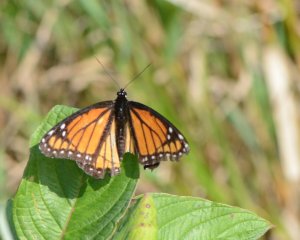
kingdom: Animalia
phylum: Arthropoda
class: Insecta
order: Lepidoptera
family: Nymphalidae
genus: Limenitis
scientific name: Limenitis archippus
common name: Viceroy
